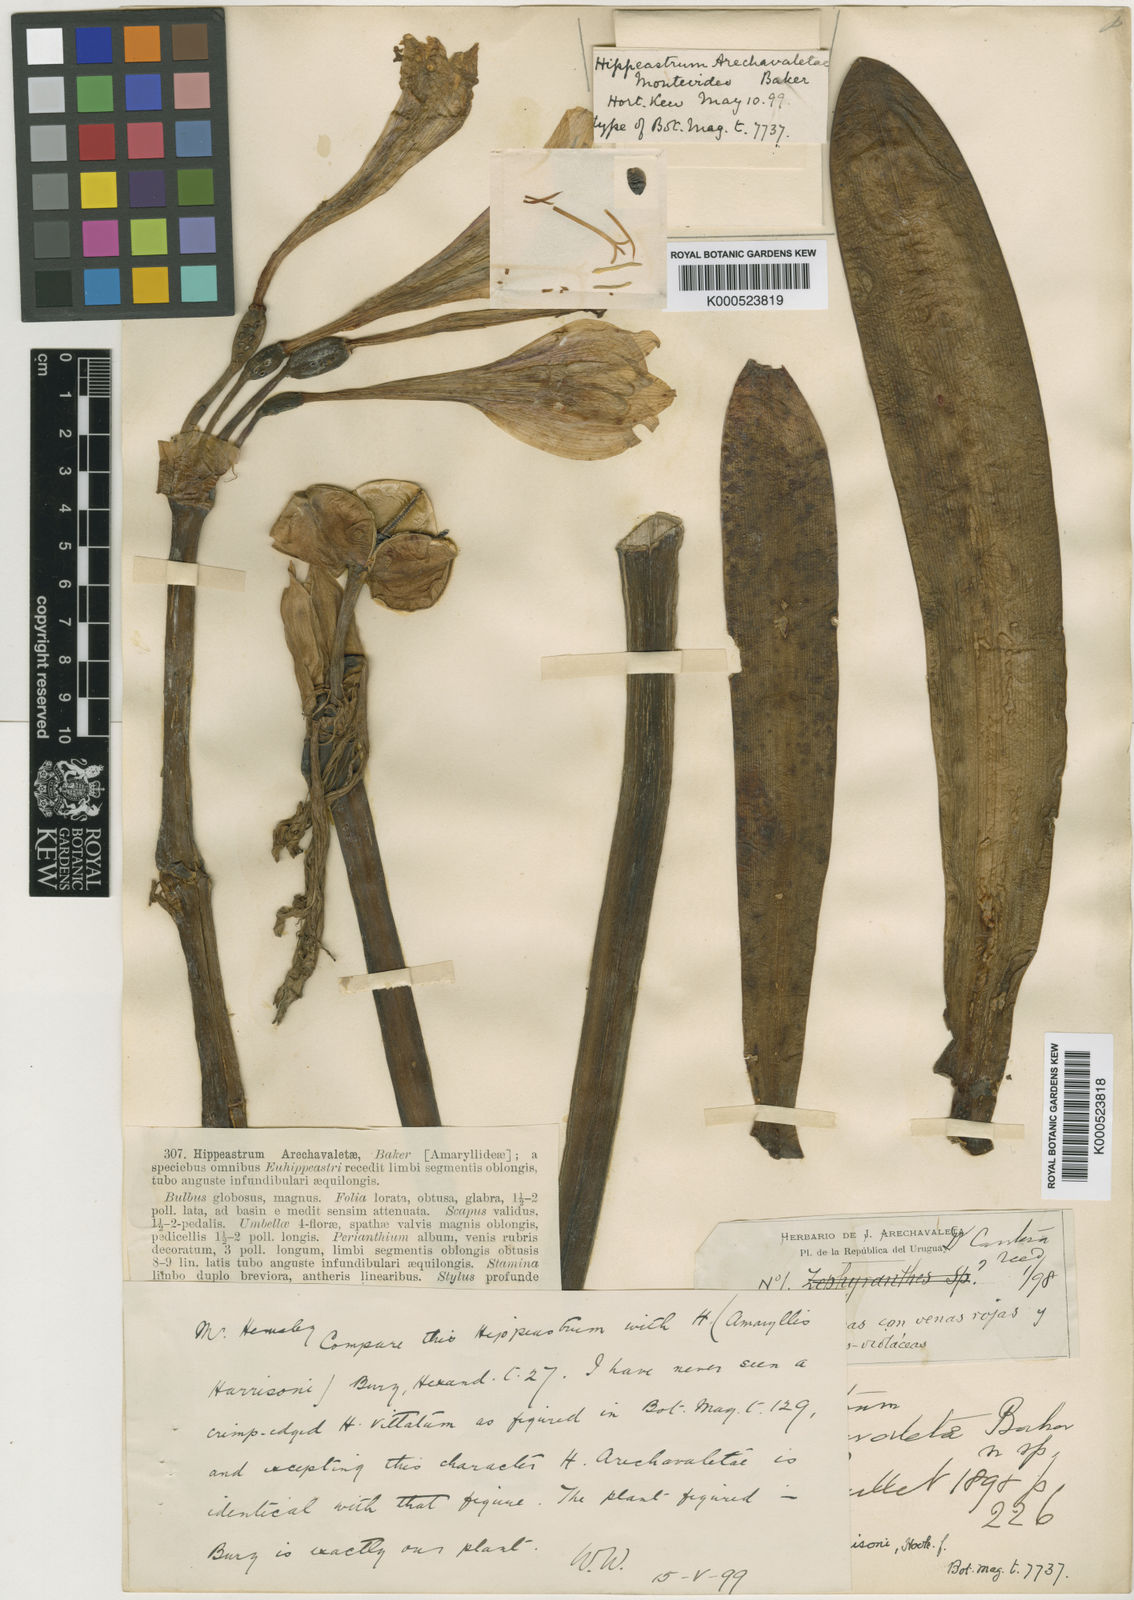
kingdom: Plantae
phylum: Tracheophyta
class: Liliopsida
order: Asparagales
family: Amaryllidaceae
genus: Hippeastrum
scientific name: Hippeastrum harrisonii
